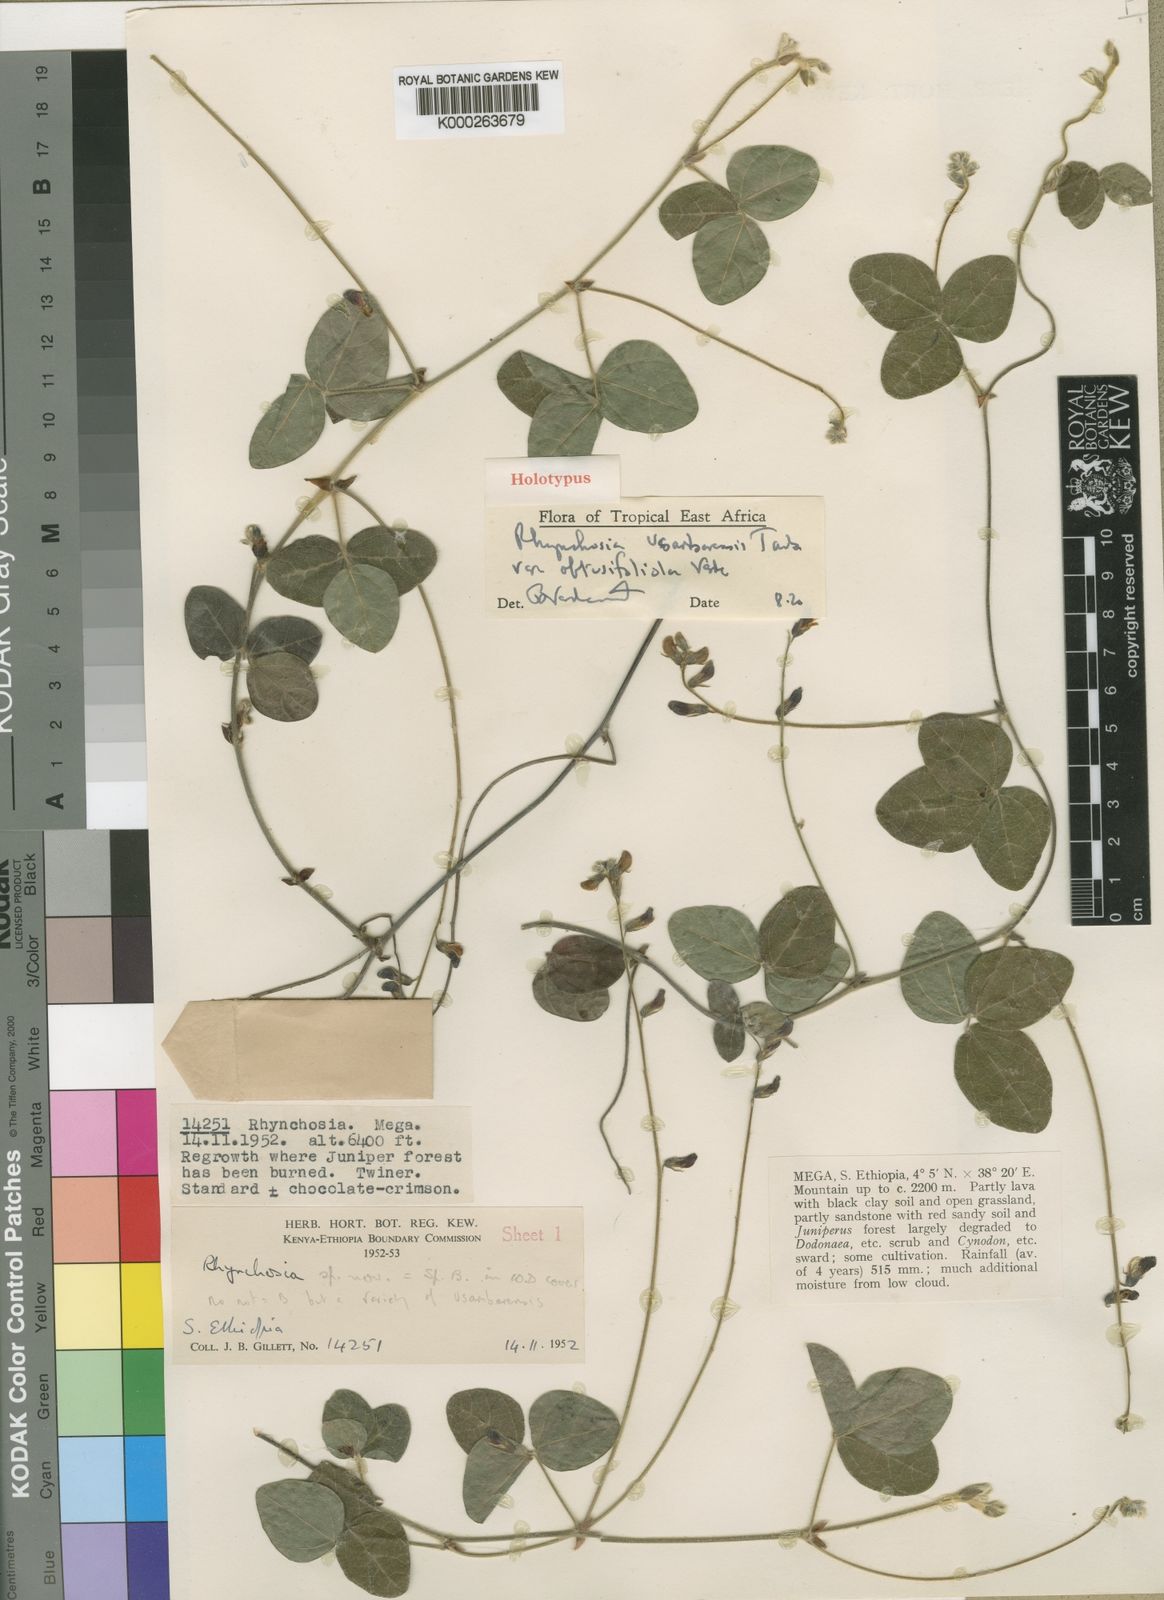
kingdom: Plantae
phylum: Tracheophyta
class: Magnoliopsida
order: Fabales
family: Fabaceae
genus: Rhynchosia
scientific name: Rhynchosia usambarensis
